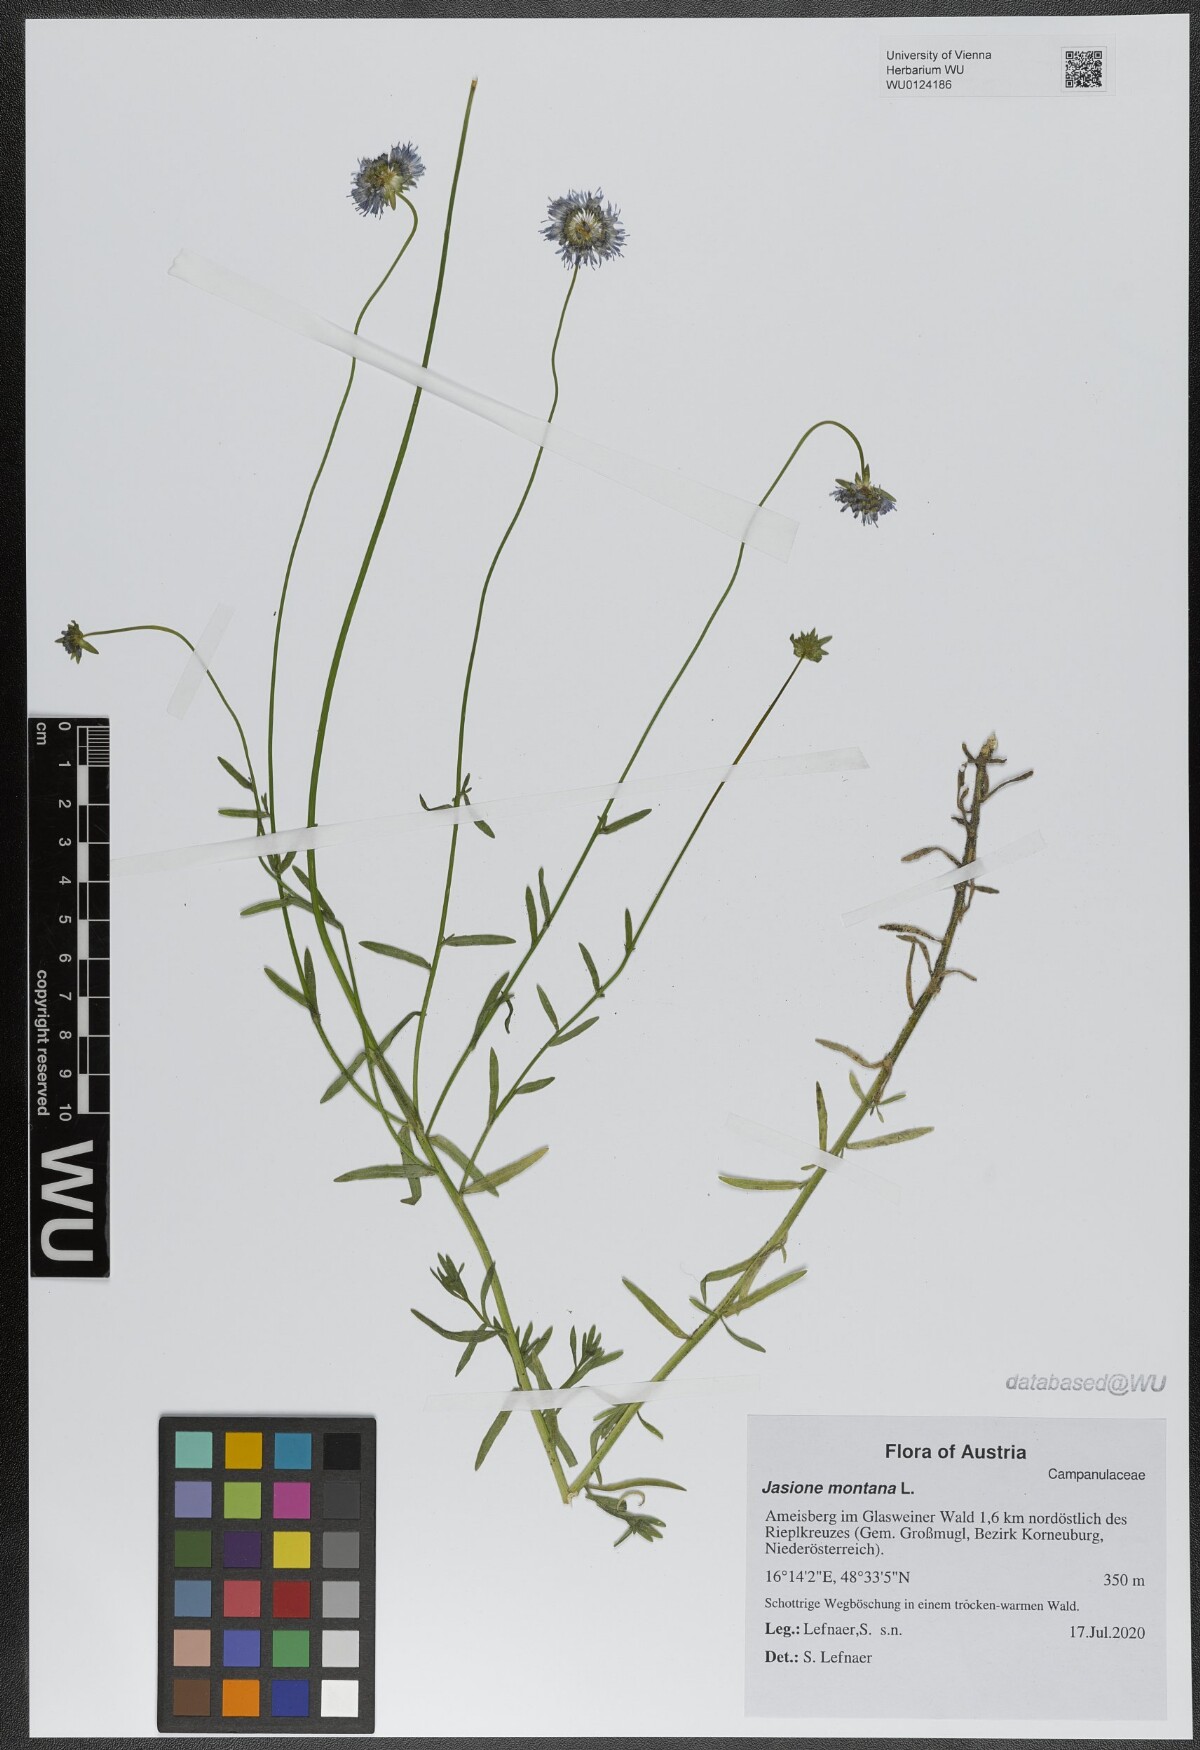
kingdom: Plantae
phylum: Tracheophyta
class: Magnoliopsida
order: Asterales
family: Campanulaceae
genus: Jasione
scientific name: Jasione montana
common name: Sheep's-bit
